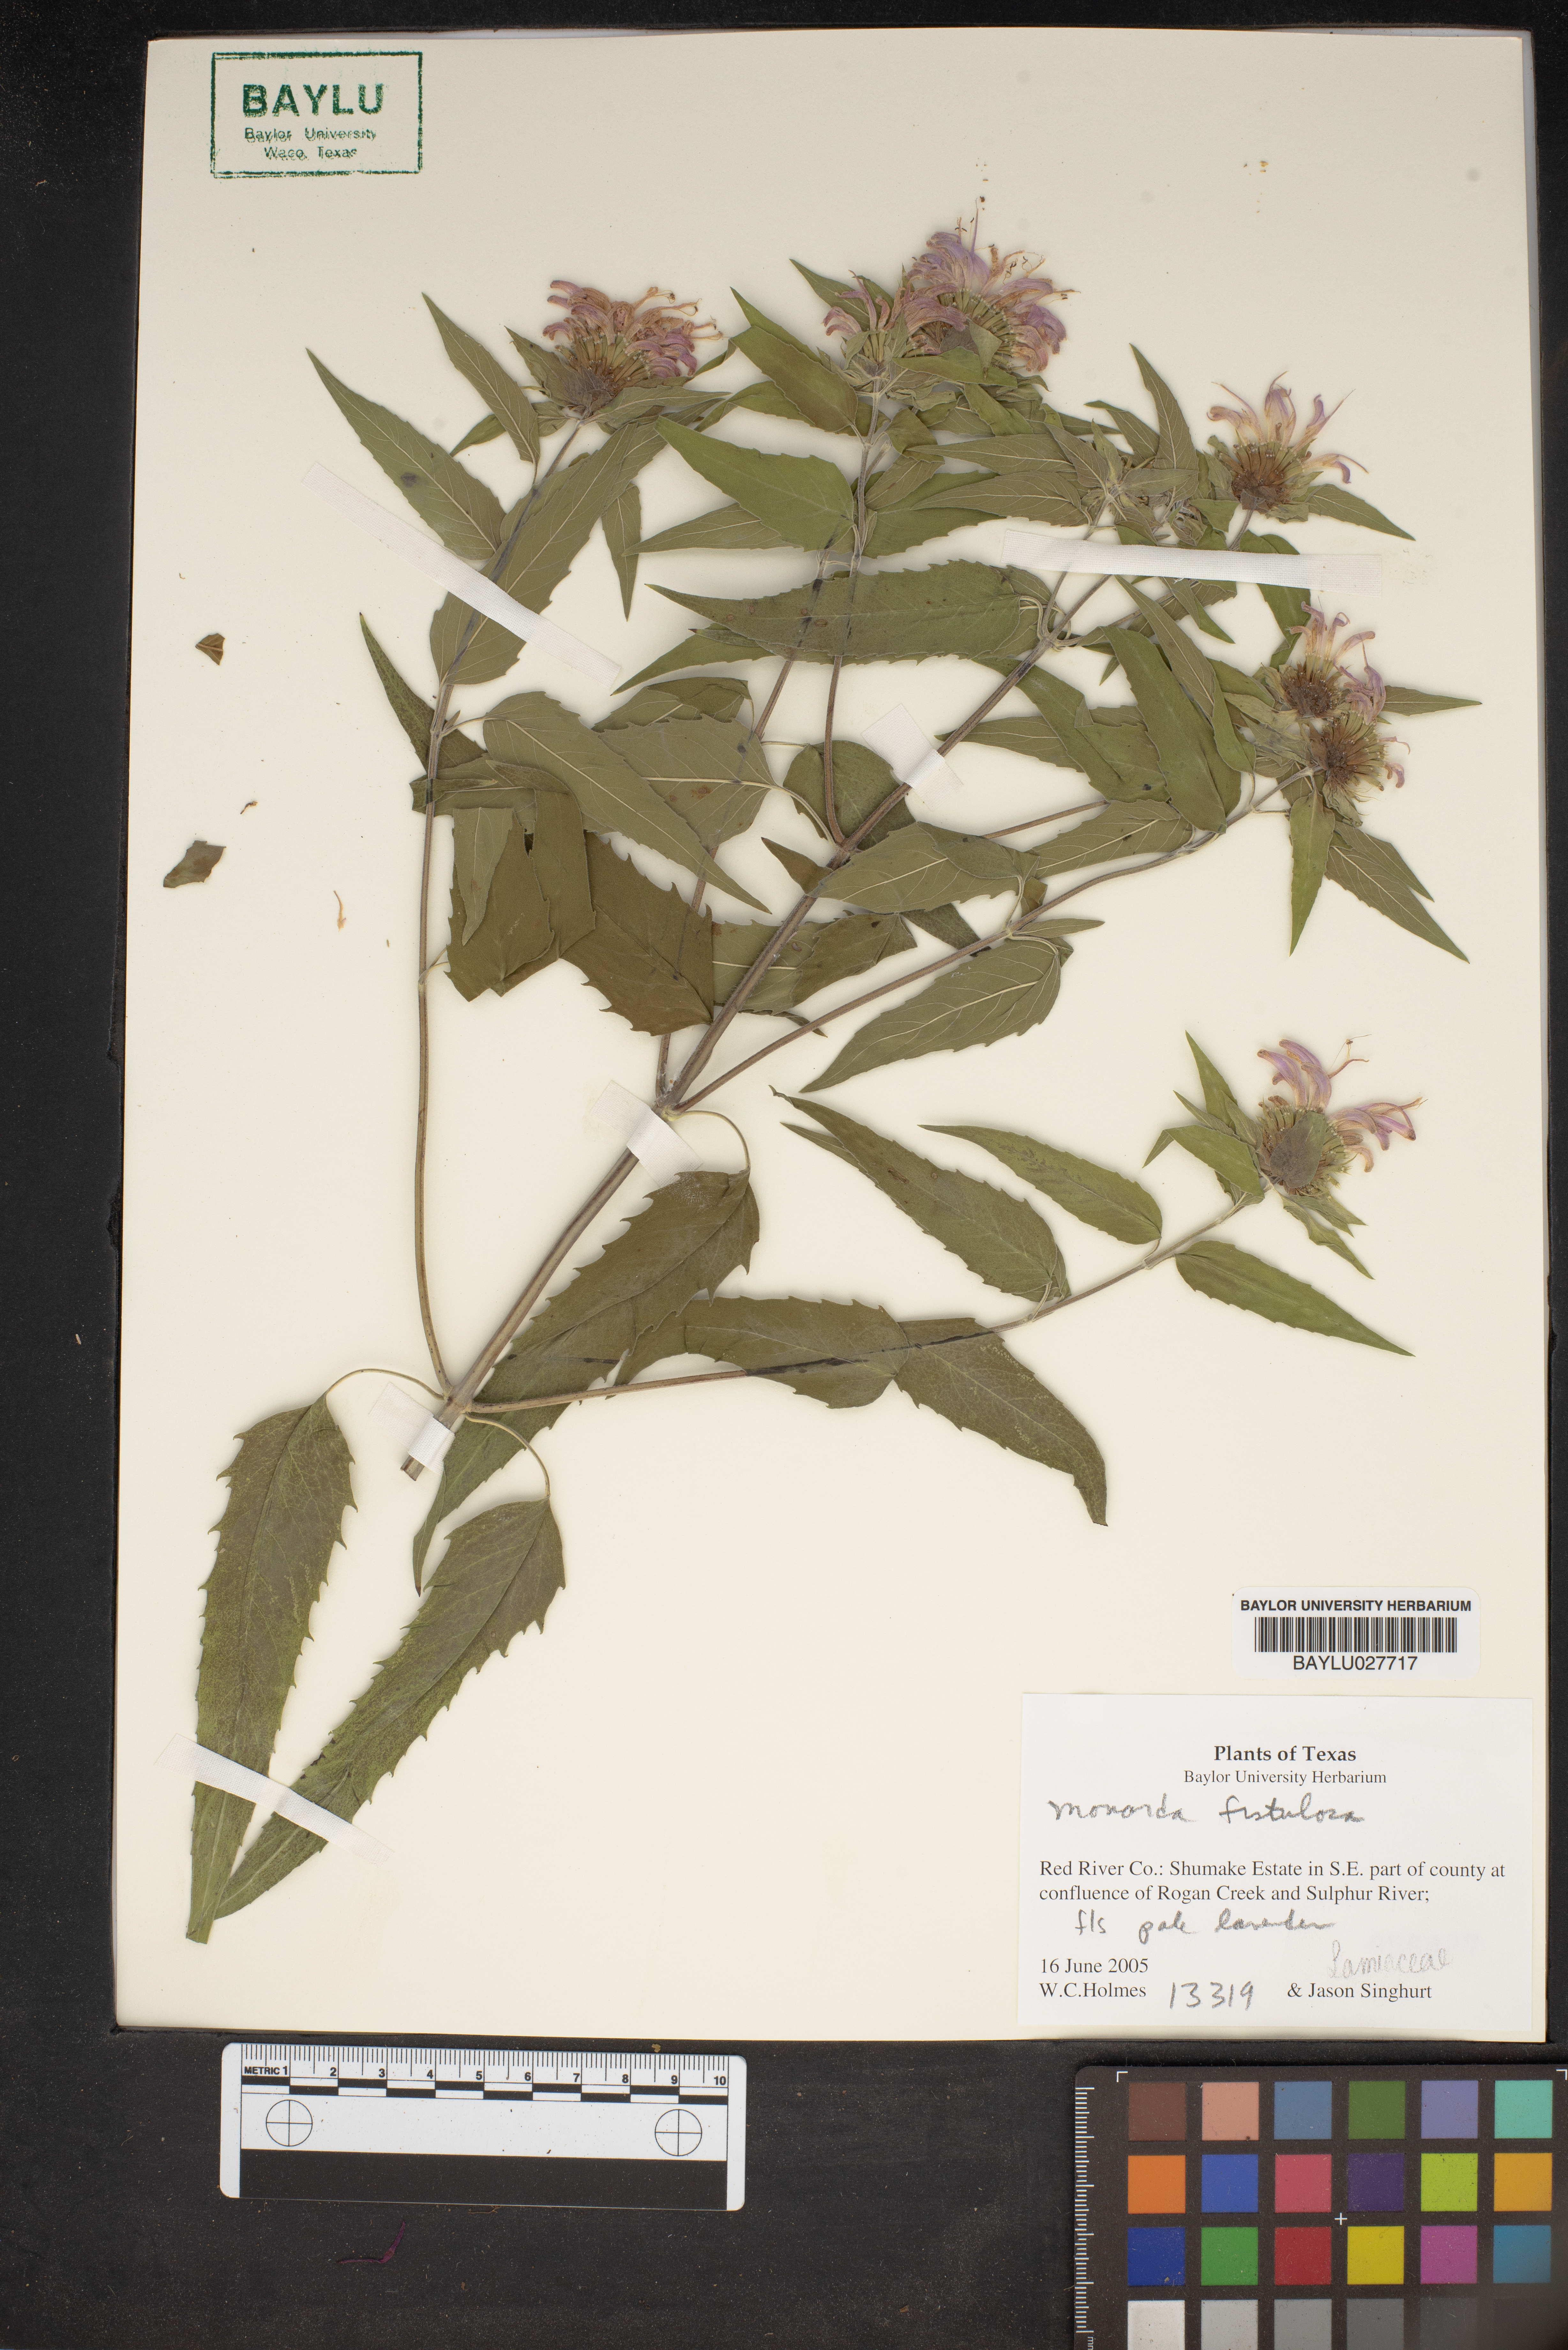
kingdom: Plantae
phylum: Tracheophyta
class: Magnoliopsida
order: Lamiales
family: Lamiaceae
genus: Monarda
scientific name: Monarda fistulosa
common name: Purple beebalm
